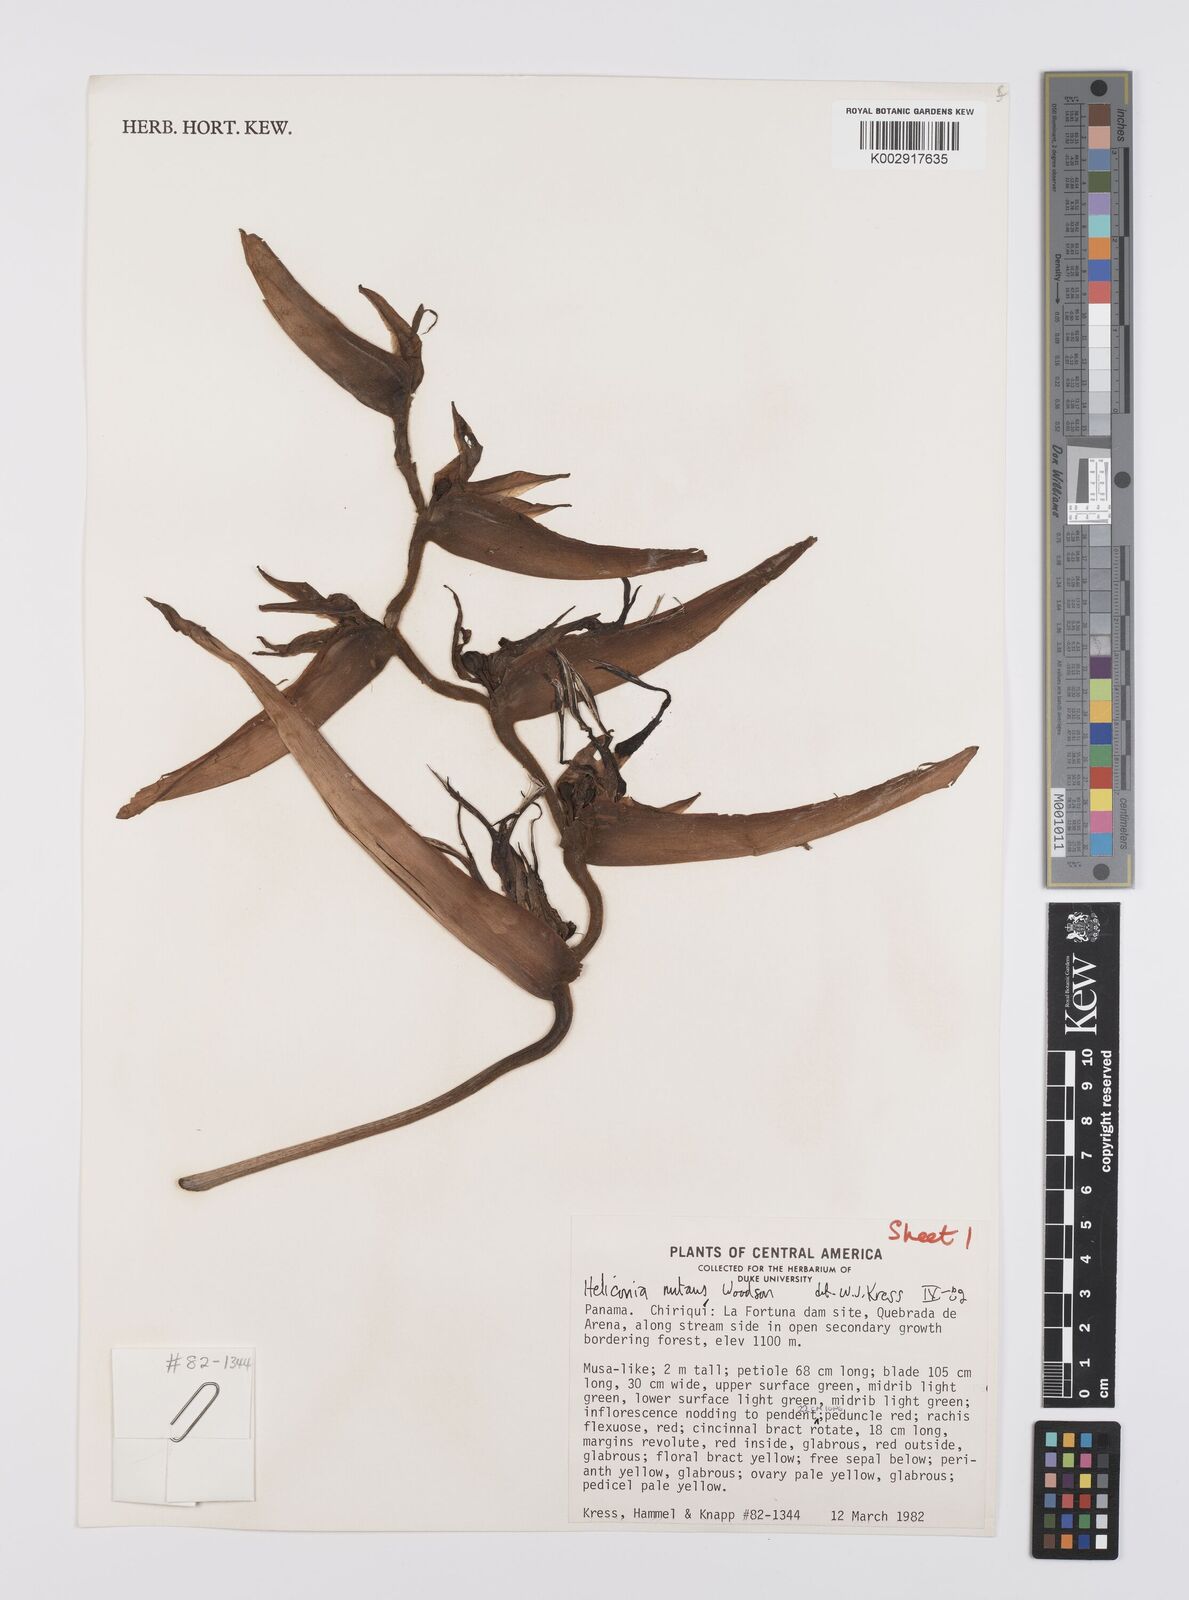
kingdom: Plantae
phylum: Tracheophyta
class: Liliopsida
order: Zingiberales
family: Heliconiaceae
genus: Heliconia
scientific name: Heliconia nutans
